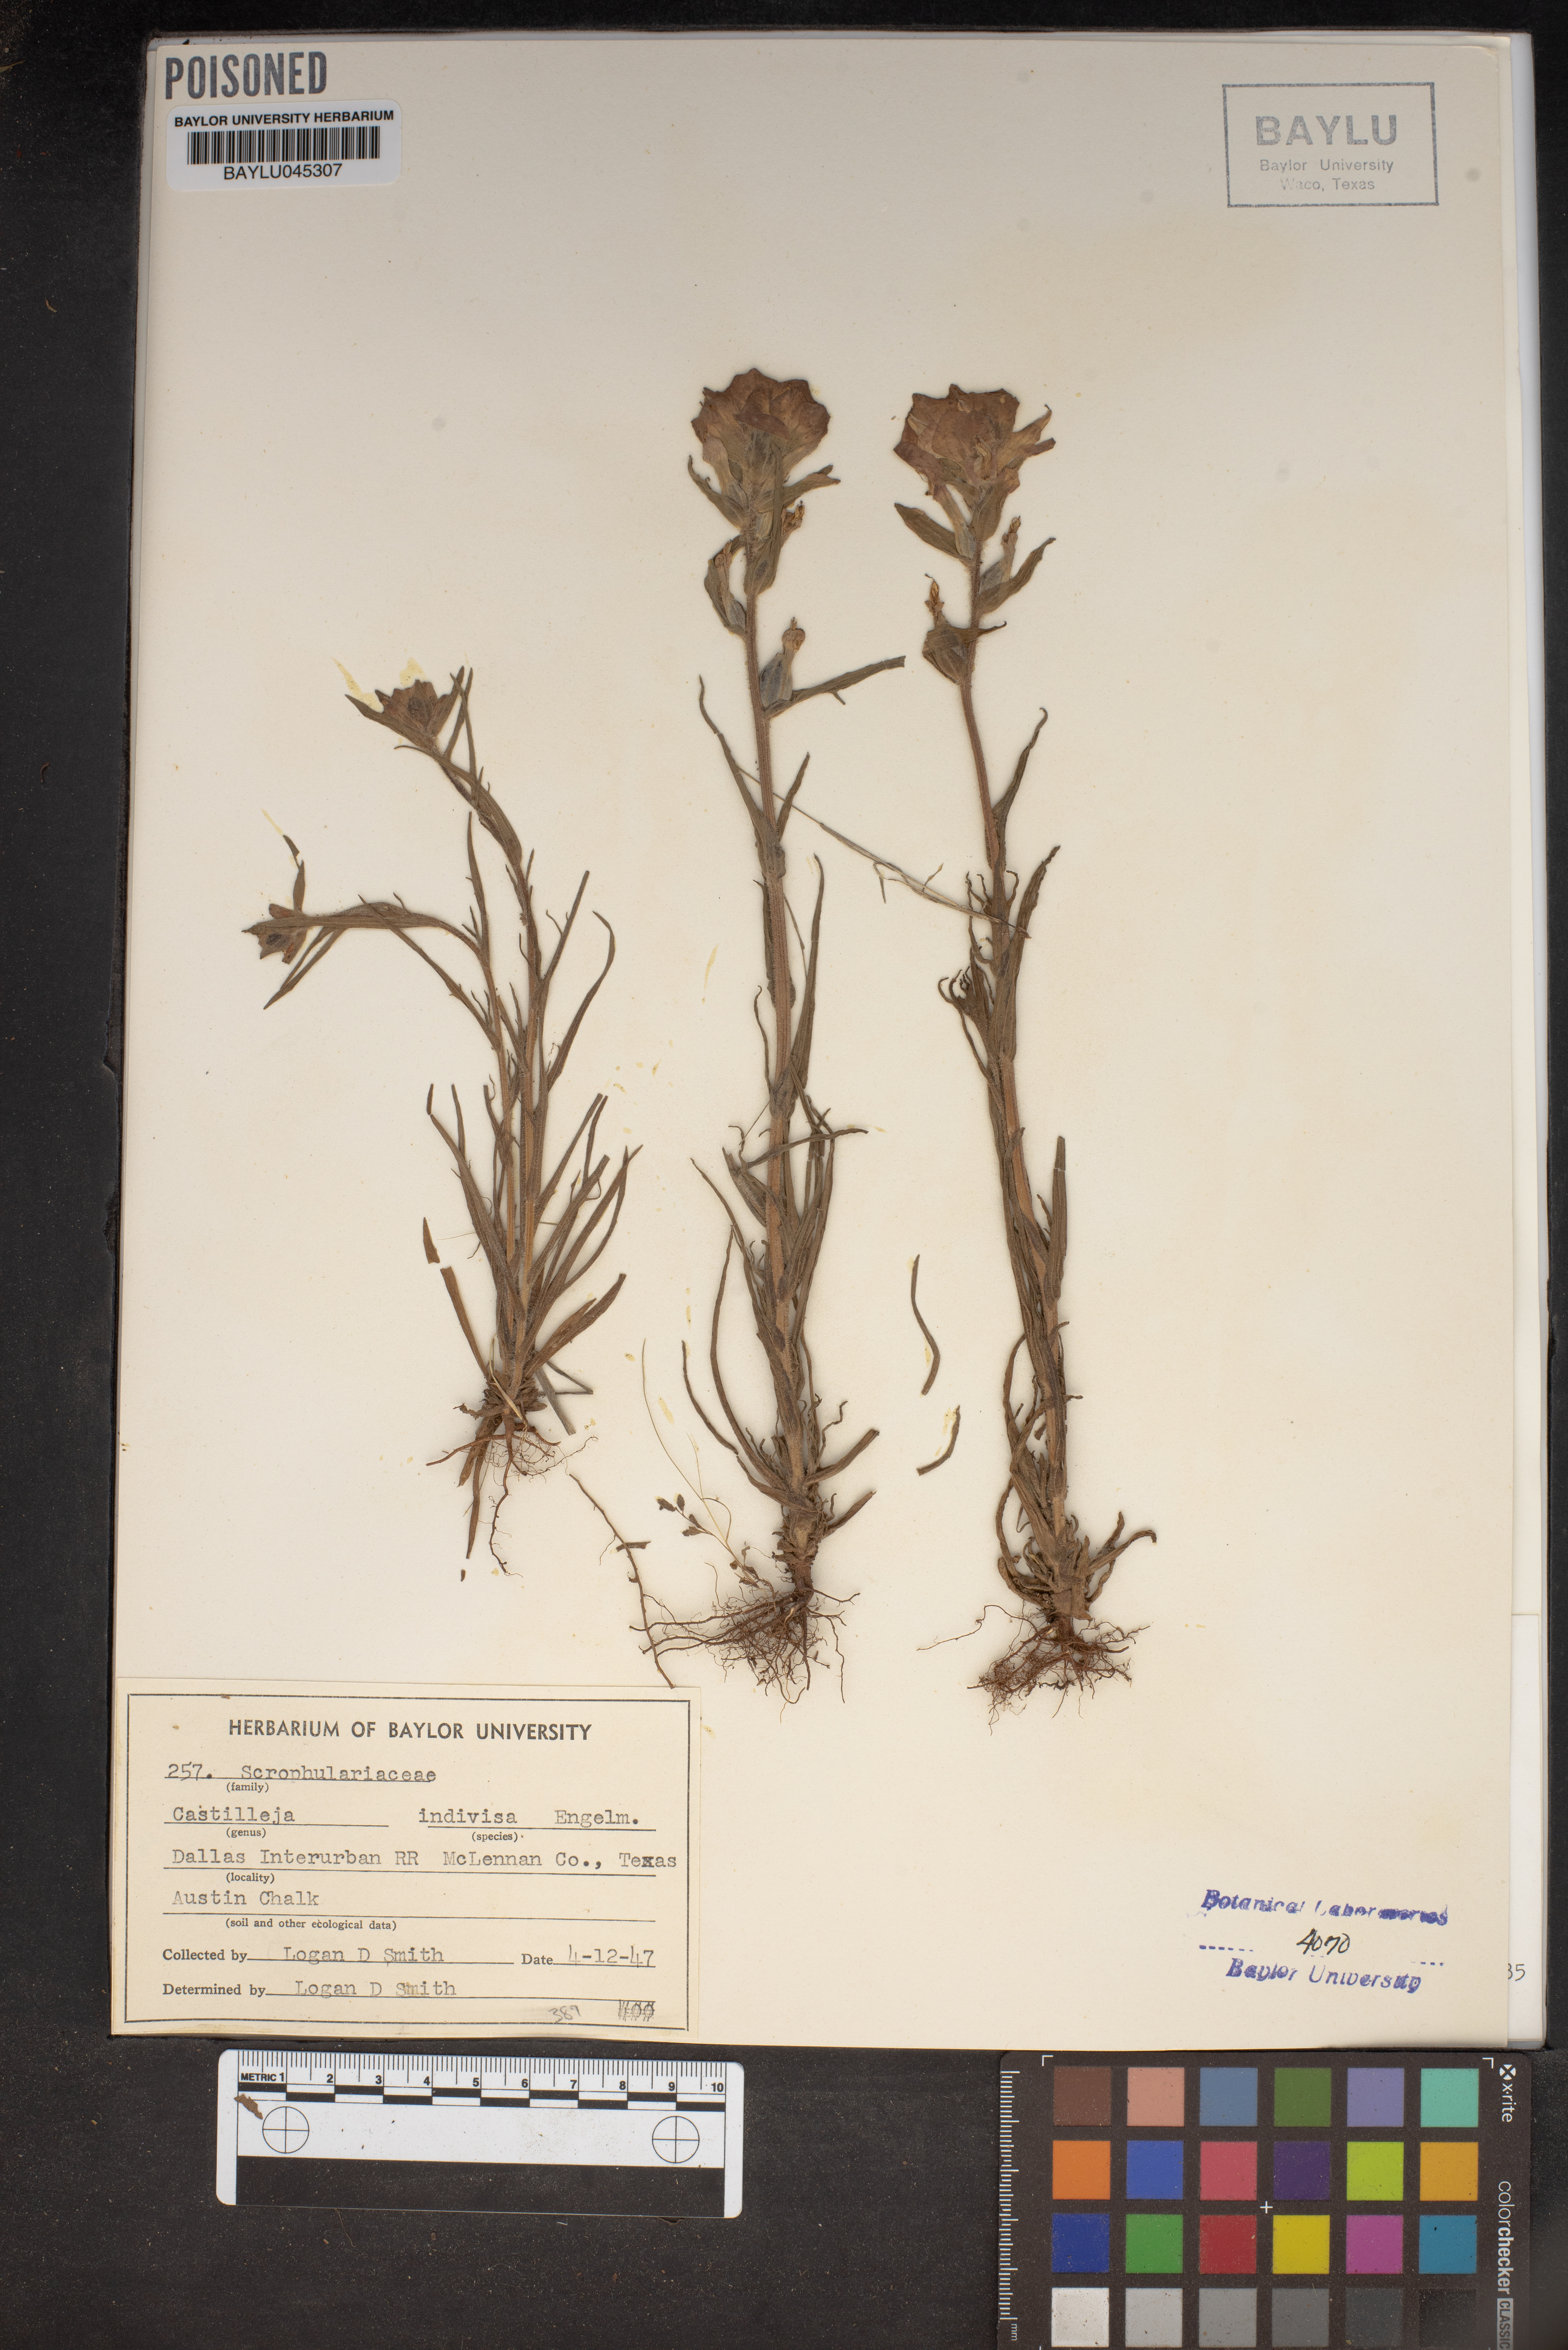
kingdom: Plantae
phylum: Tracheophyta
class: Magnoliopsida
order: Lamiales
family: Orobanchaceae
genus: Castilleja
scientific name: Castilleja indivisa
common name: Texas paintbrush
